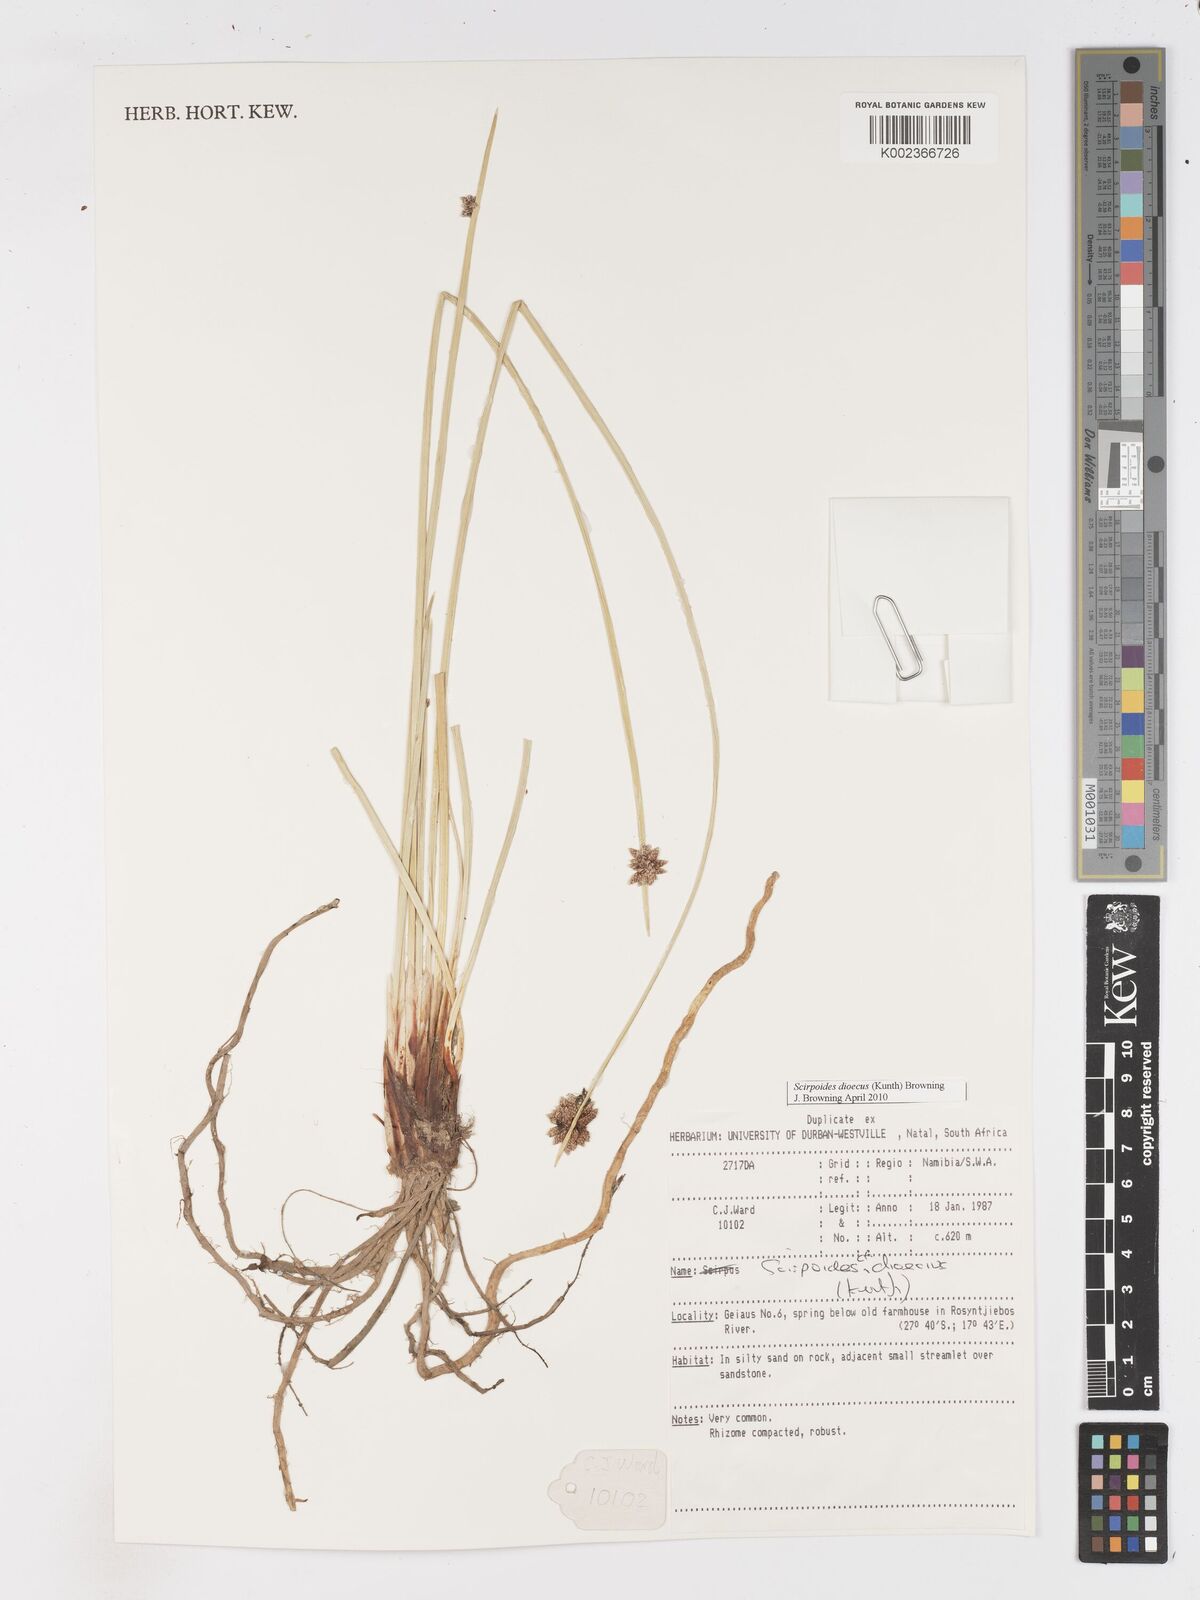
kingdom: Plantae
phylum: Tracheophyta
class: Liliopsida
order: Poales
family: Cyperaceae
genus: Scirpoides
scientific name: Scirpoides
